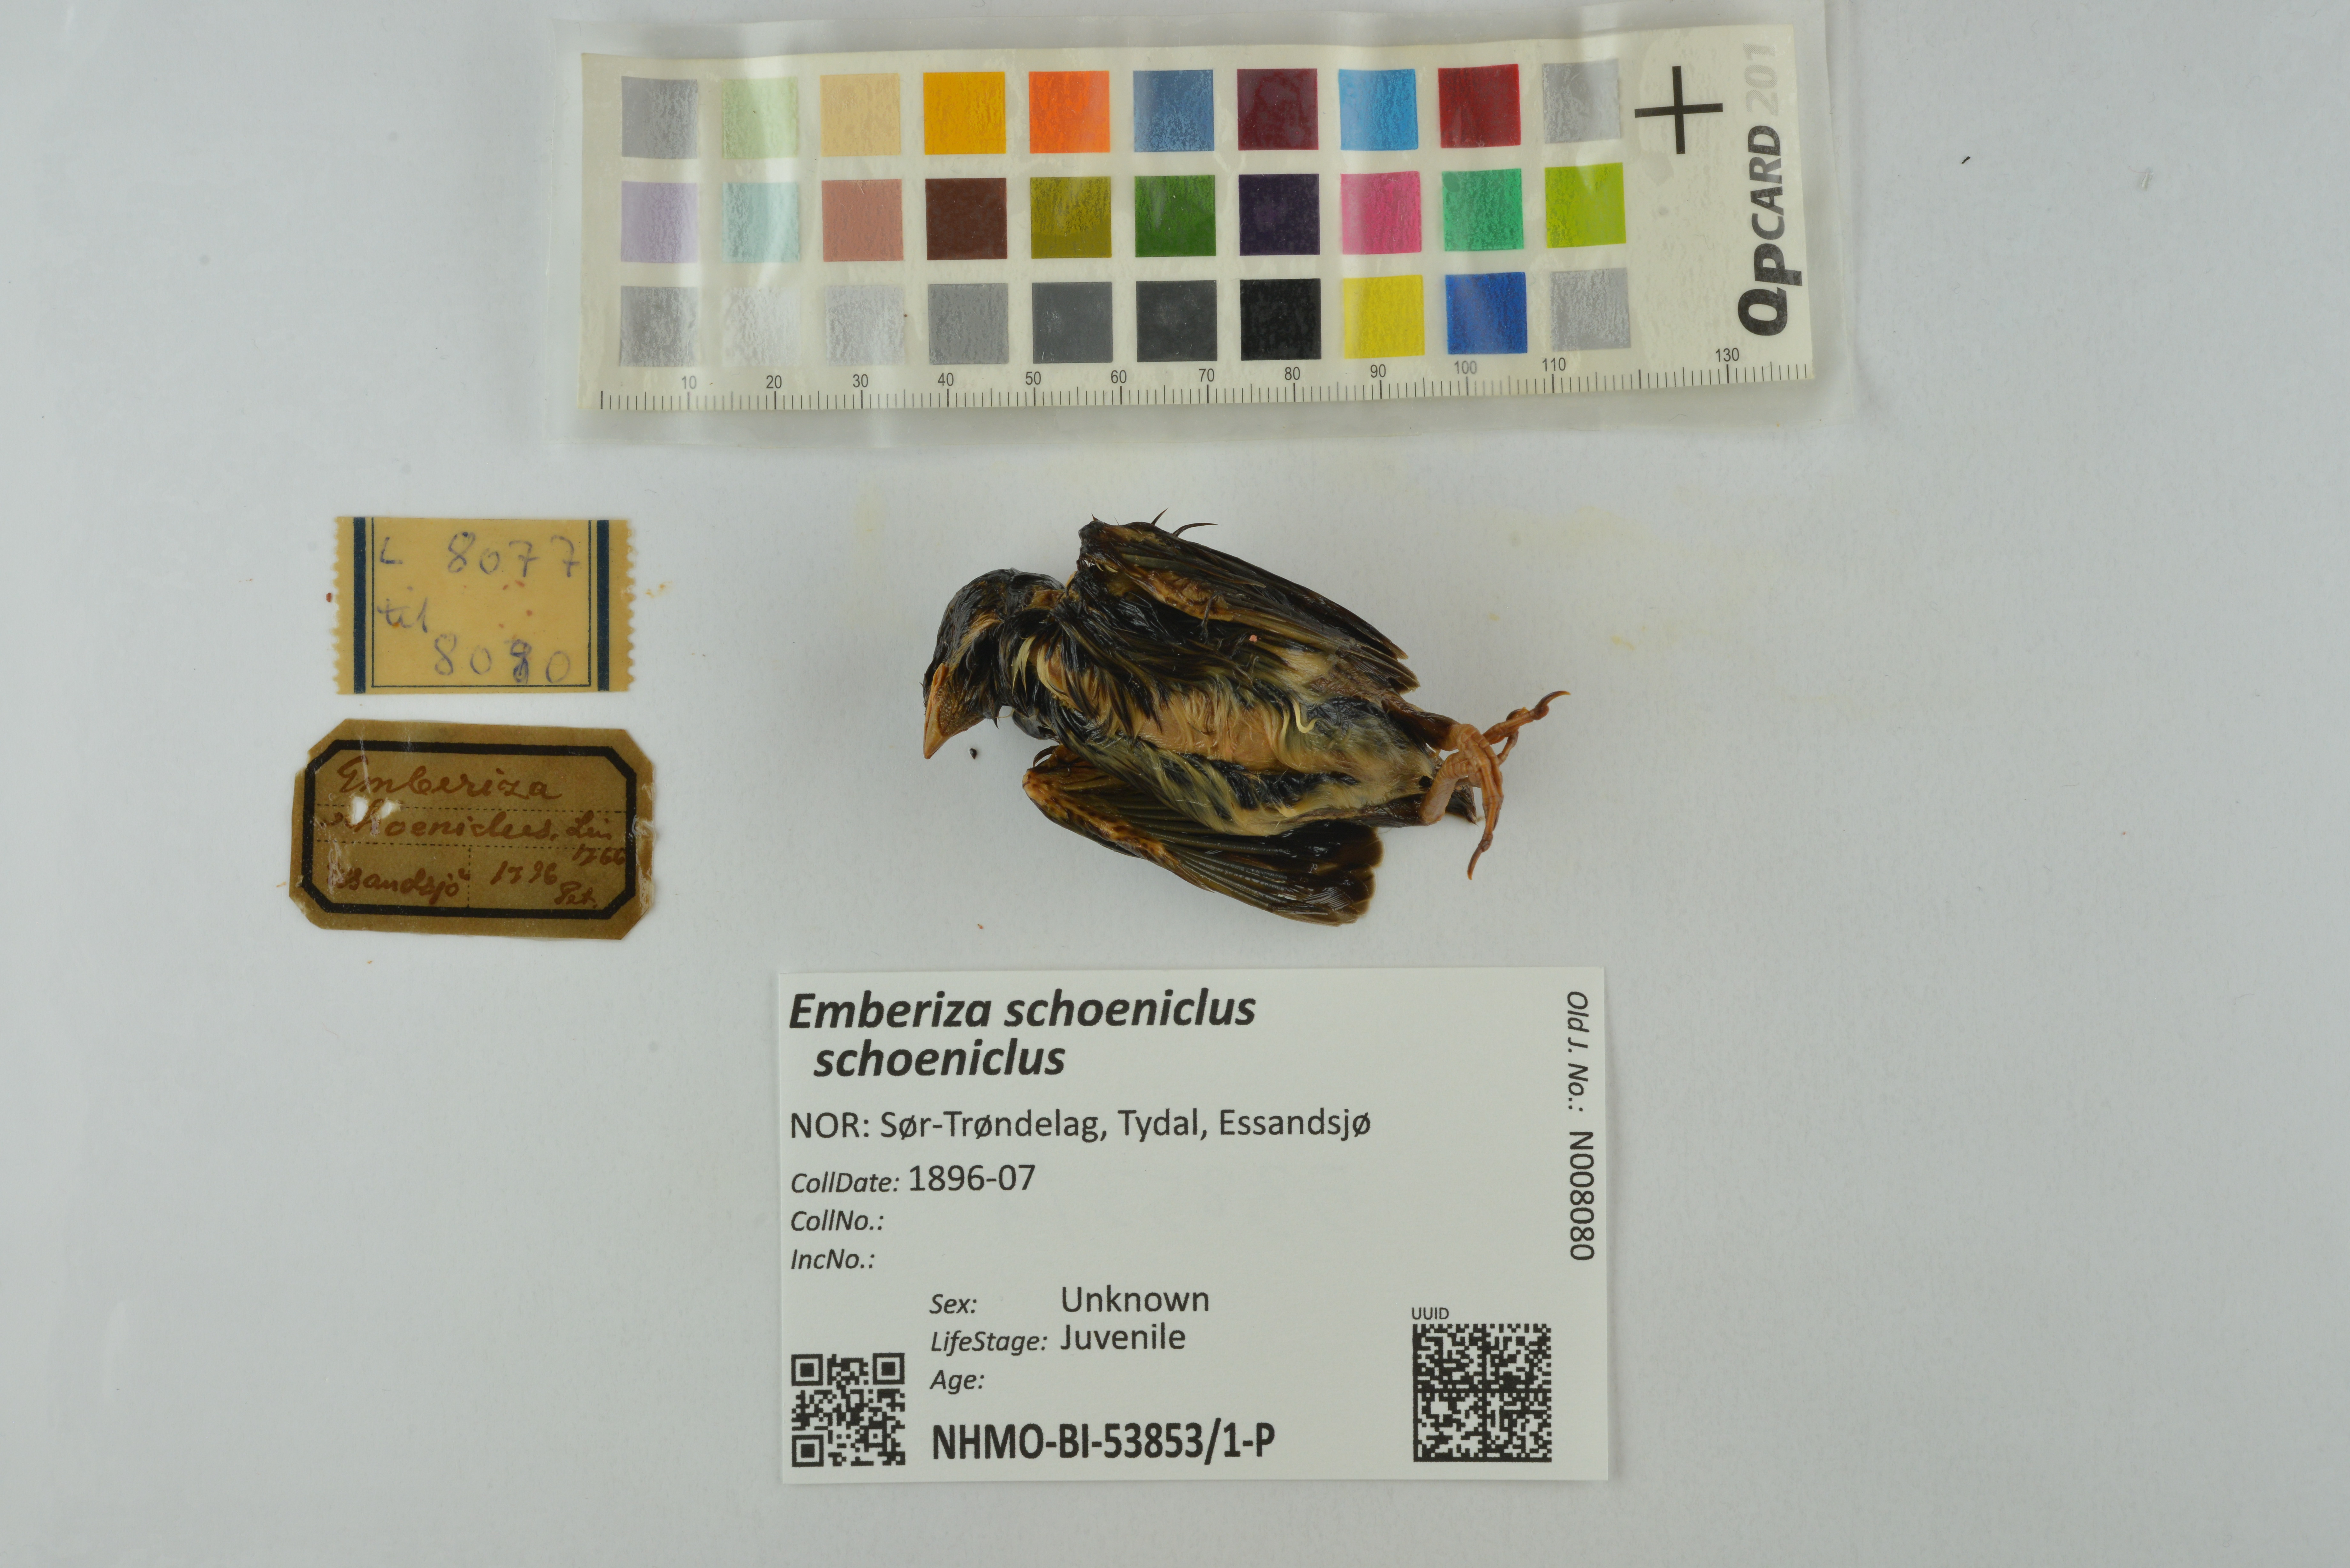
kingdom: Animalia
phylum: Chordata
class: Aves
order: Passeriformes
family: Emberizidae
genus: Emberiza
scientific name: Emberiza schoeniclus
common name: Reed bunting
